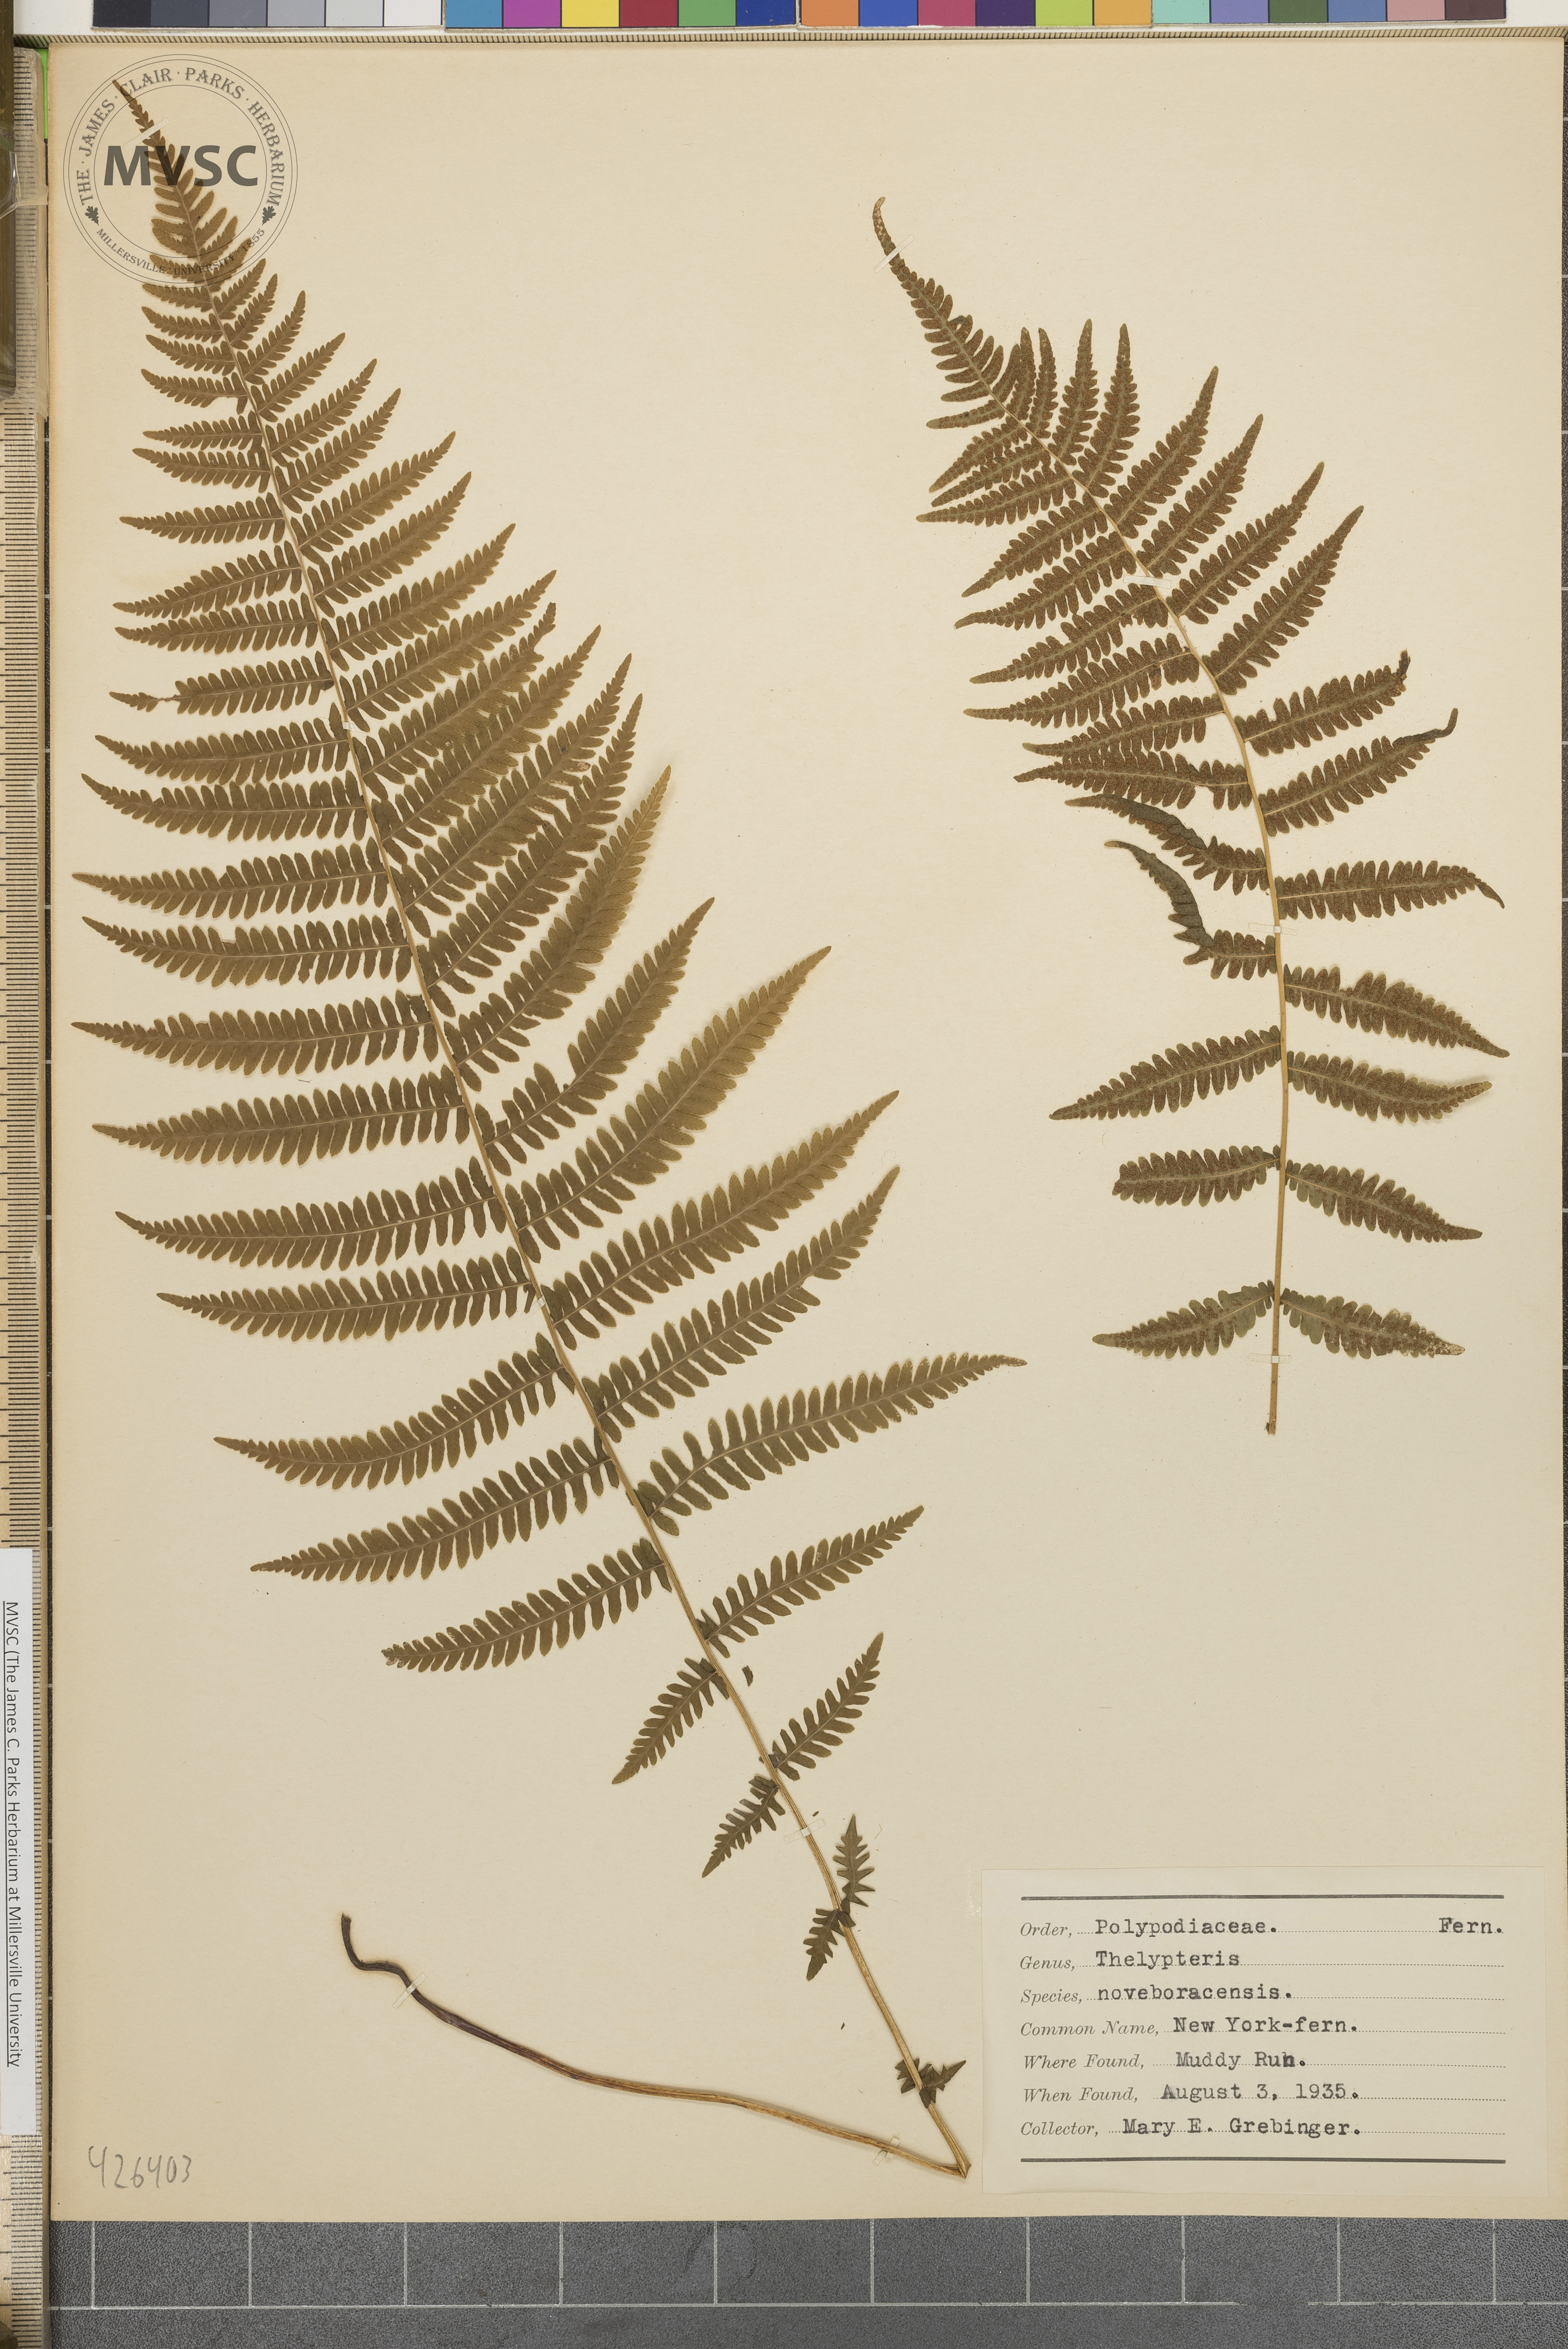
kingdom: Plantae
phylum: Tracheophyta
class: Polypodiopsida
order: Polypodiales
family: Thelypteridaceae
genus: Amauropelta
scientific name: Amauropelta noveboracensis
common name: New York fern
